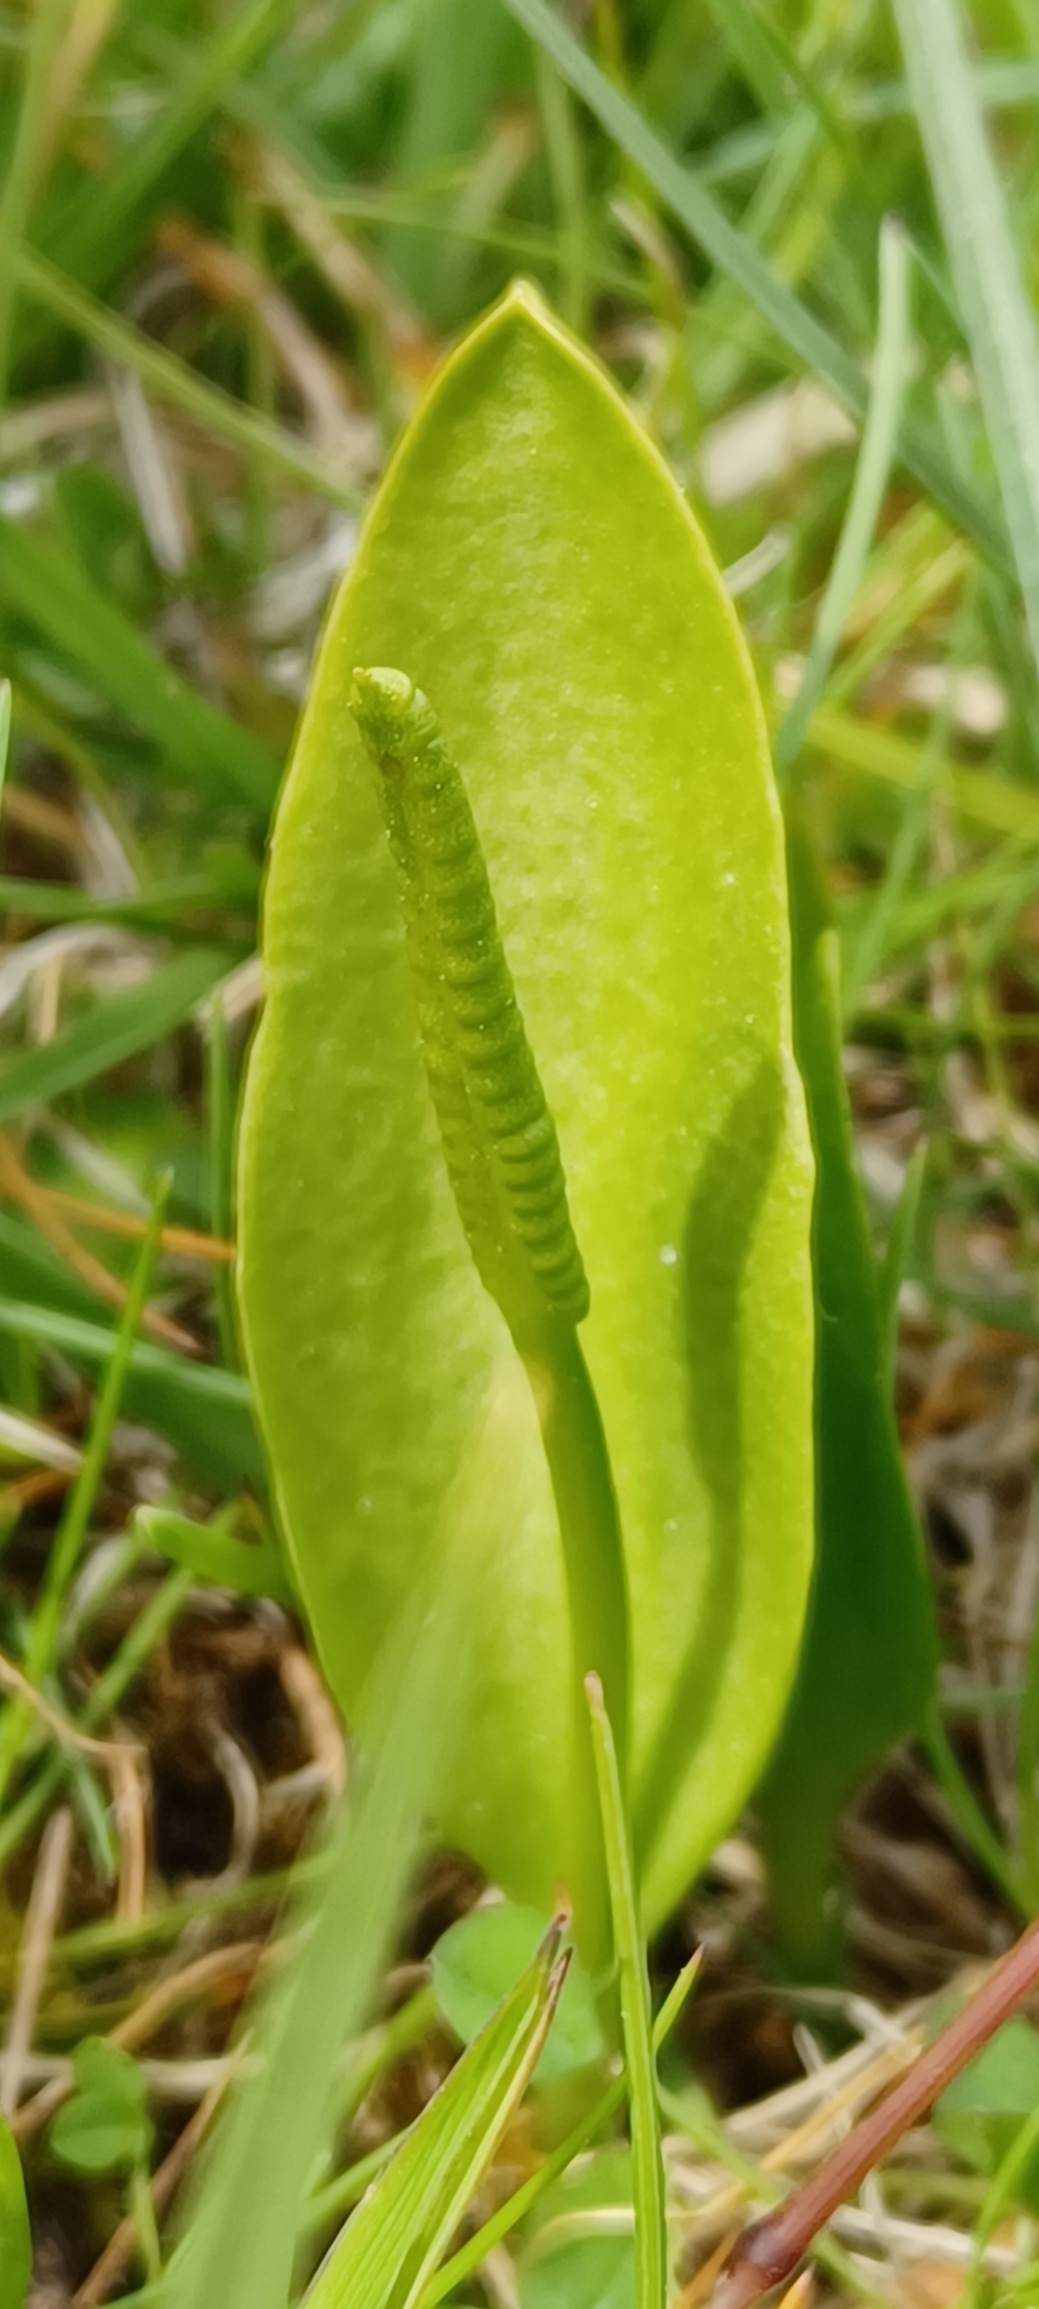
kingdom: Plantae
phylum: Tracheophyta
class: Polypodiopsida
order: Ophioglossales
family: Ophioglossaceae
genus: Ophioglossum
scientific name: Ophioglossum vulgatum
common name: Slangetunge
